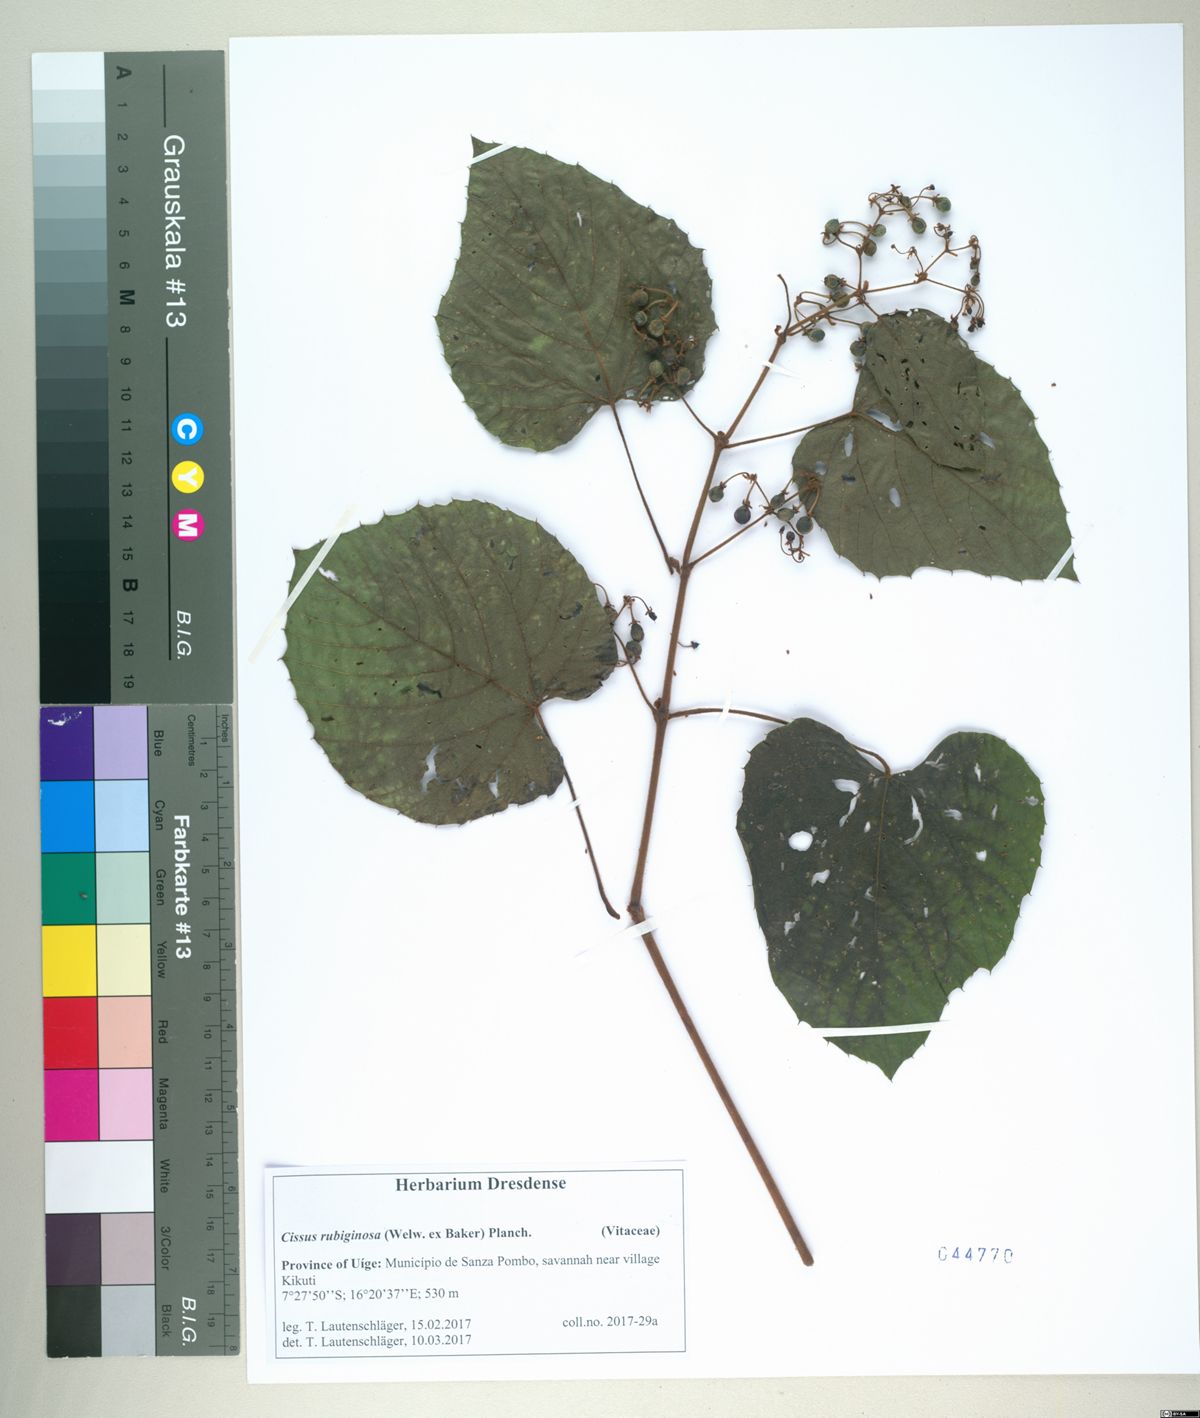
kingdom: Plantae
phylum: Tracheophyta
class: Magnoliopsida
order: Vitales
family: Vitaceae
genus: Cissus
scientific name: Cissus rubiginosa
